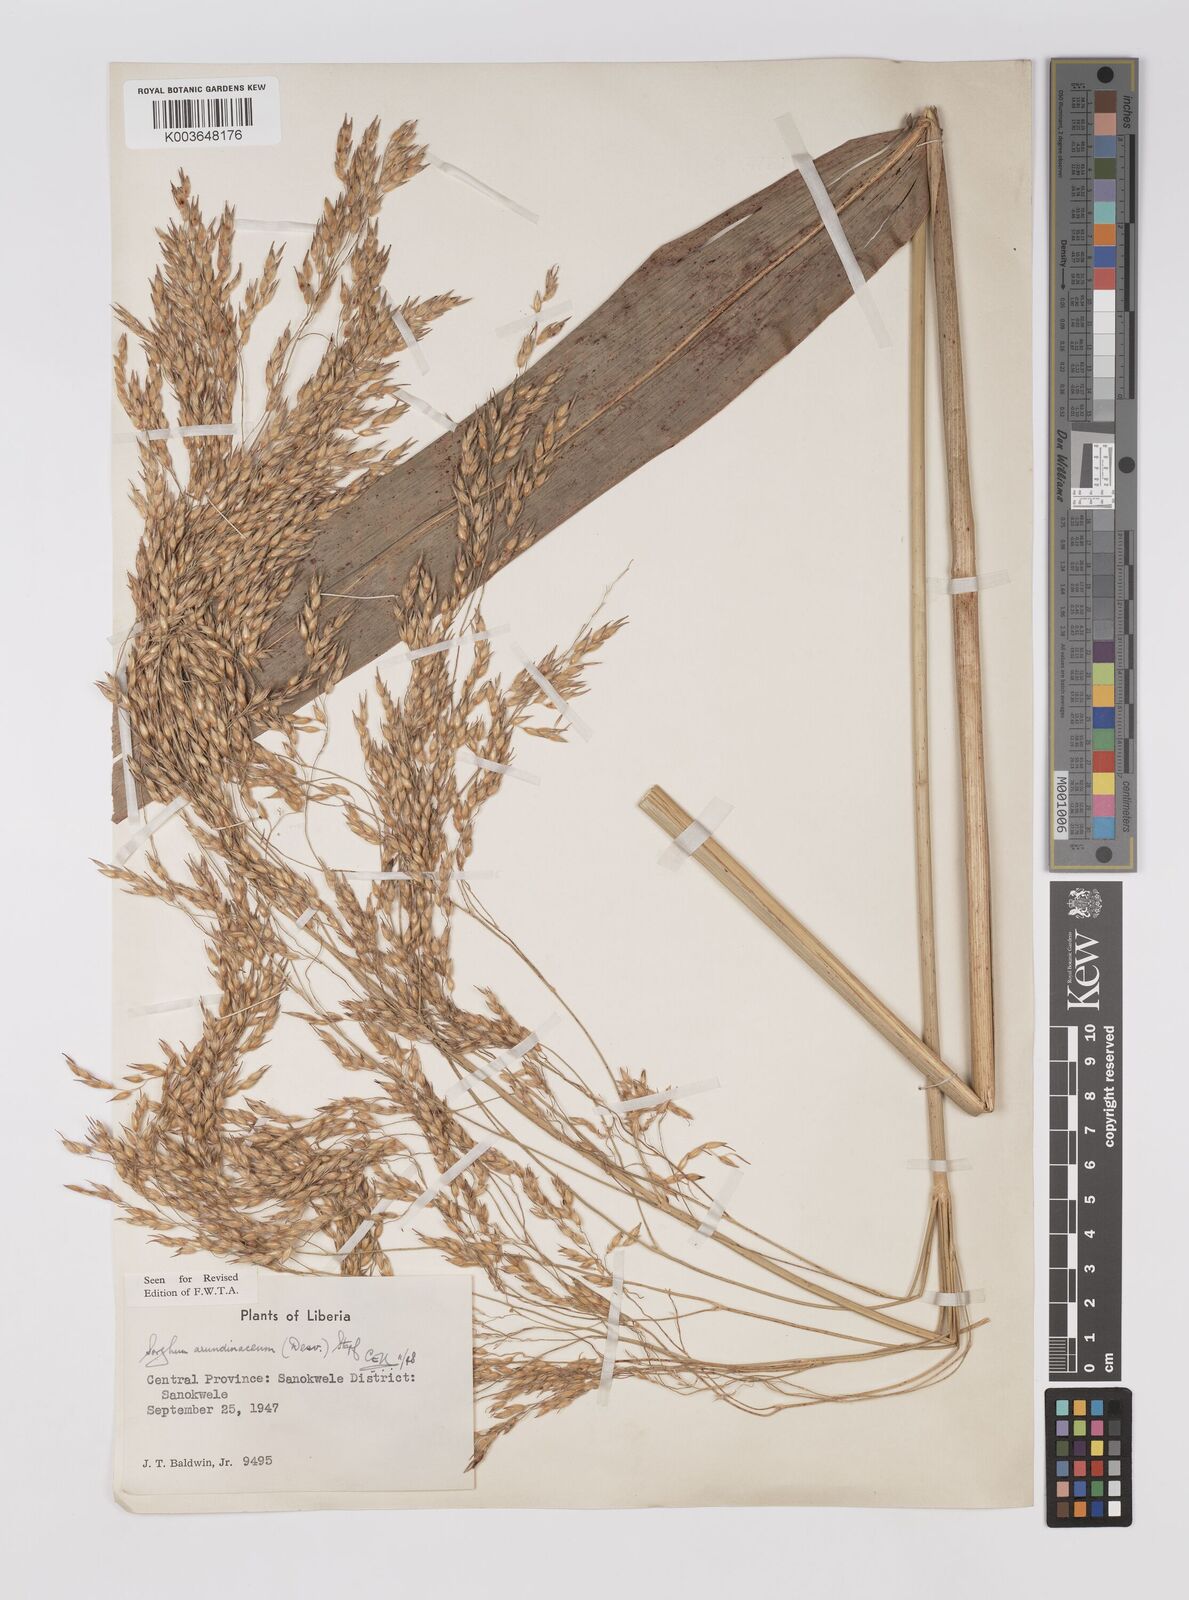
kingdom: Plantae
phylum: Tracheophyta
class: Liliopsida
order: Poales
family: Poaceae
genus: Sorghum
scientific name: Sorghum arundinaceum
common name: Sorghum
